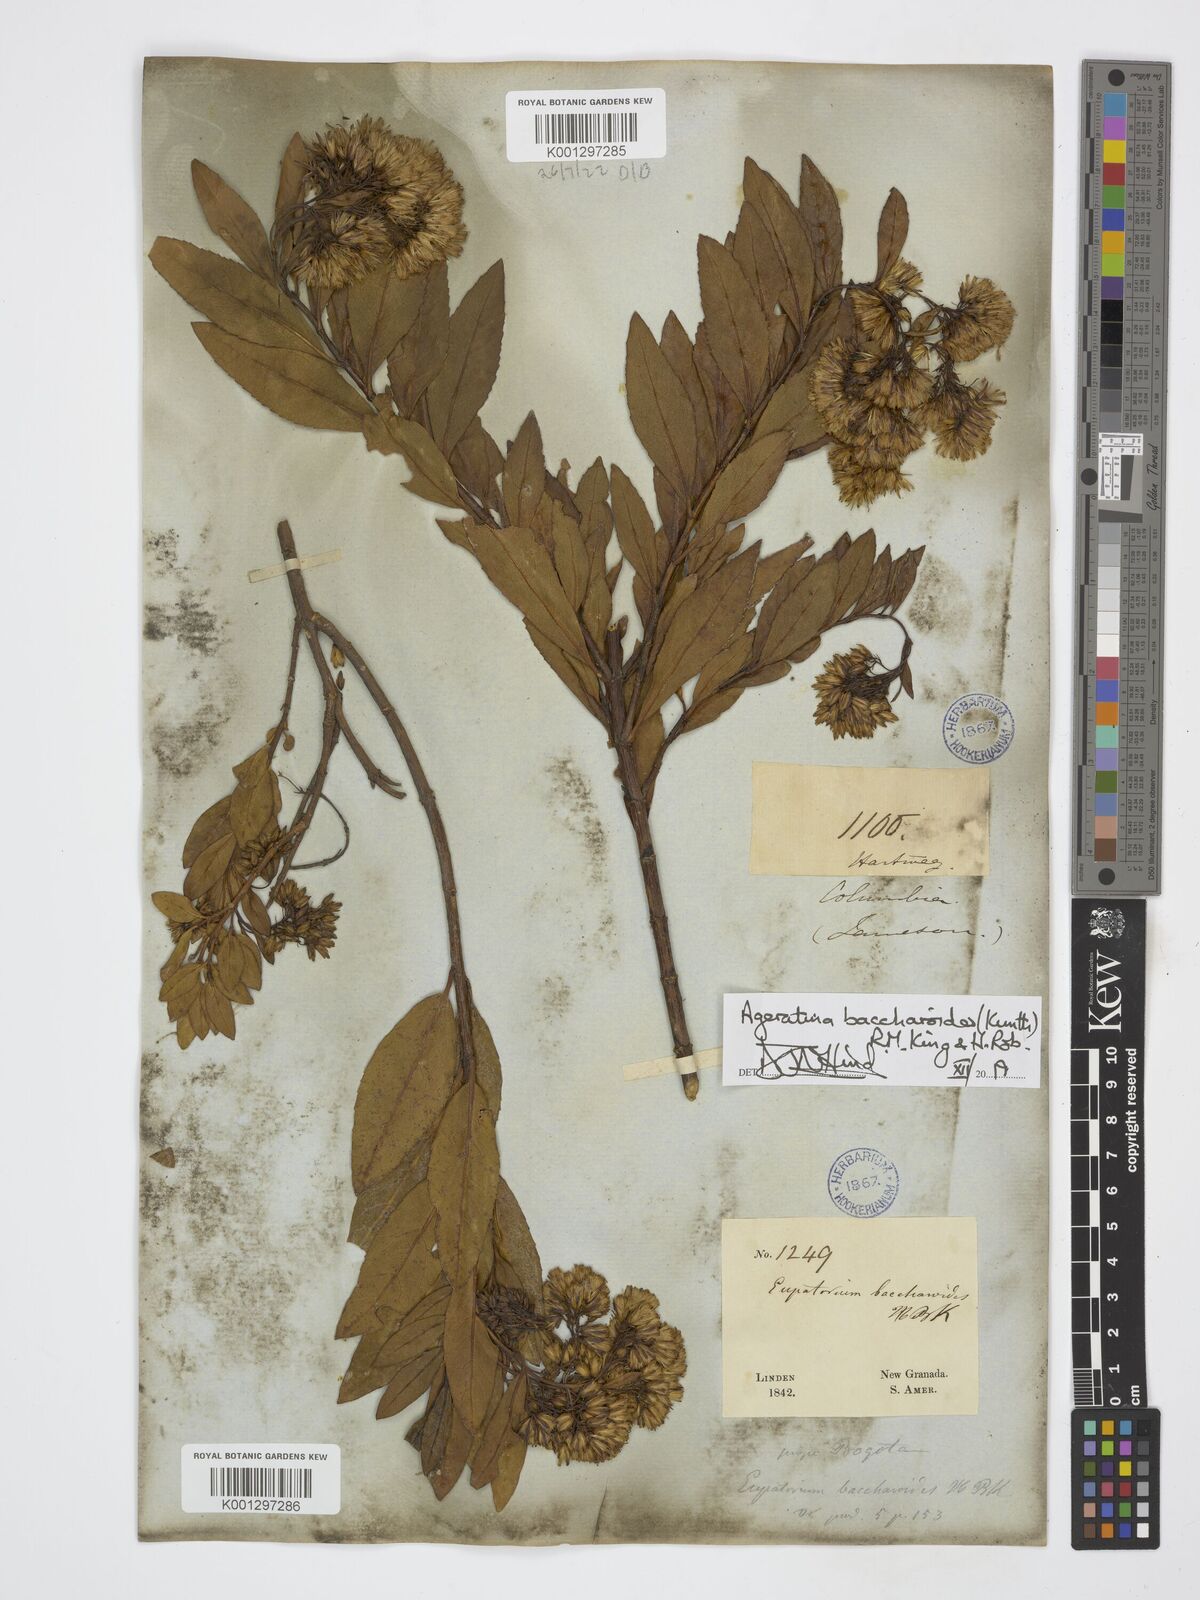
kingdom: Plantae
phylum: Tracheophyta
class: Magnoliopsida
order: Asterales
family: Asteraceae
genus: Ageratina
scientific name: Ageratina baccharoides
